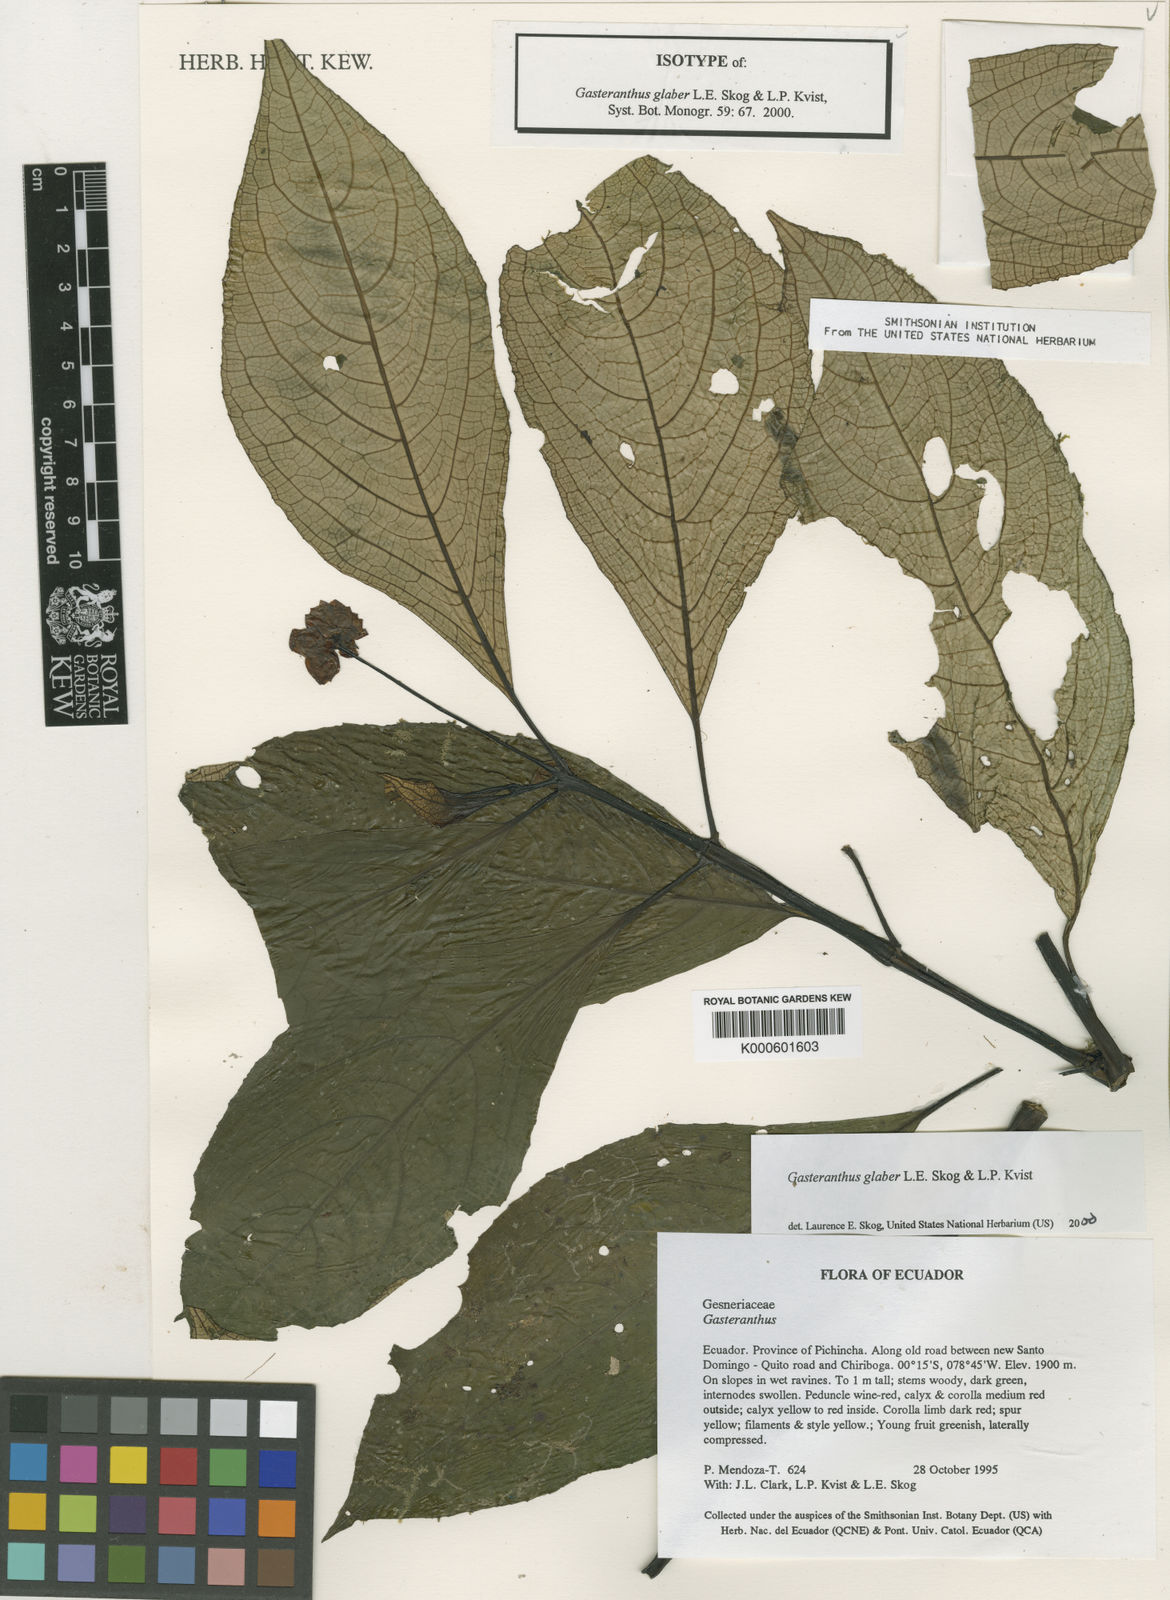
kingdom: Plantae
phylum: Tracheophyta
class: Magnoliopsida
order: Lamiales
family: Gesneriaceae
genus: Gasteranthus
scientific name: Gasteranthus glaber
